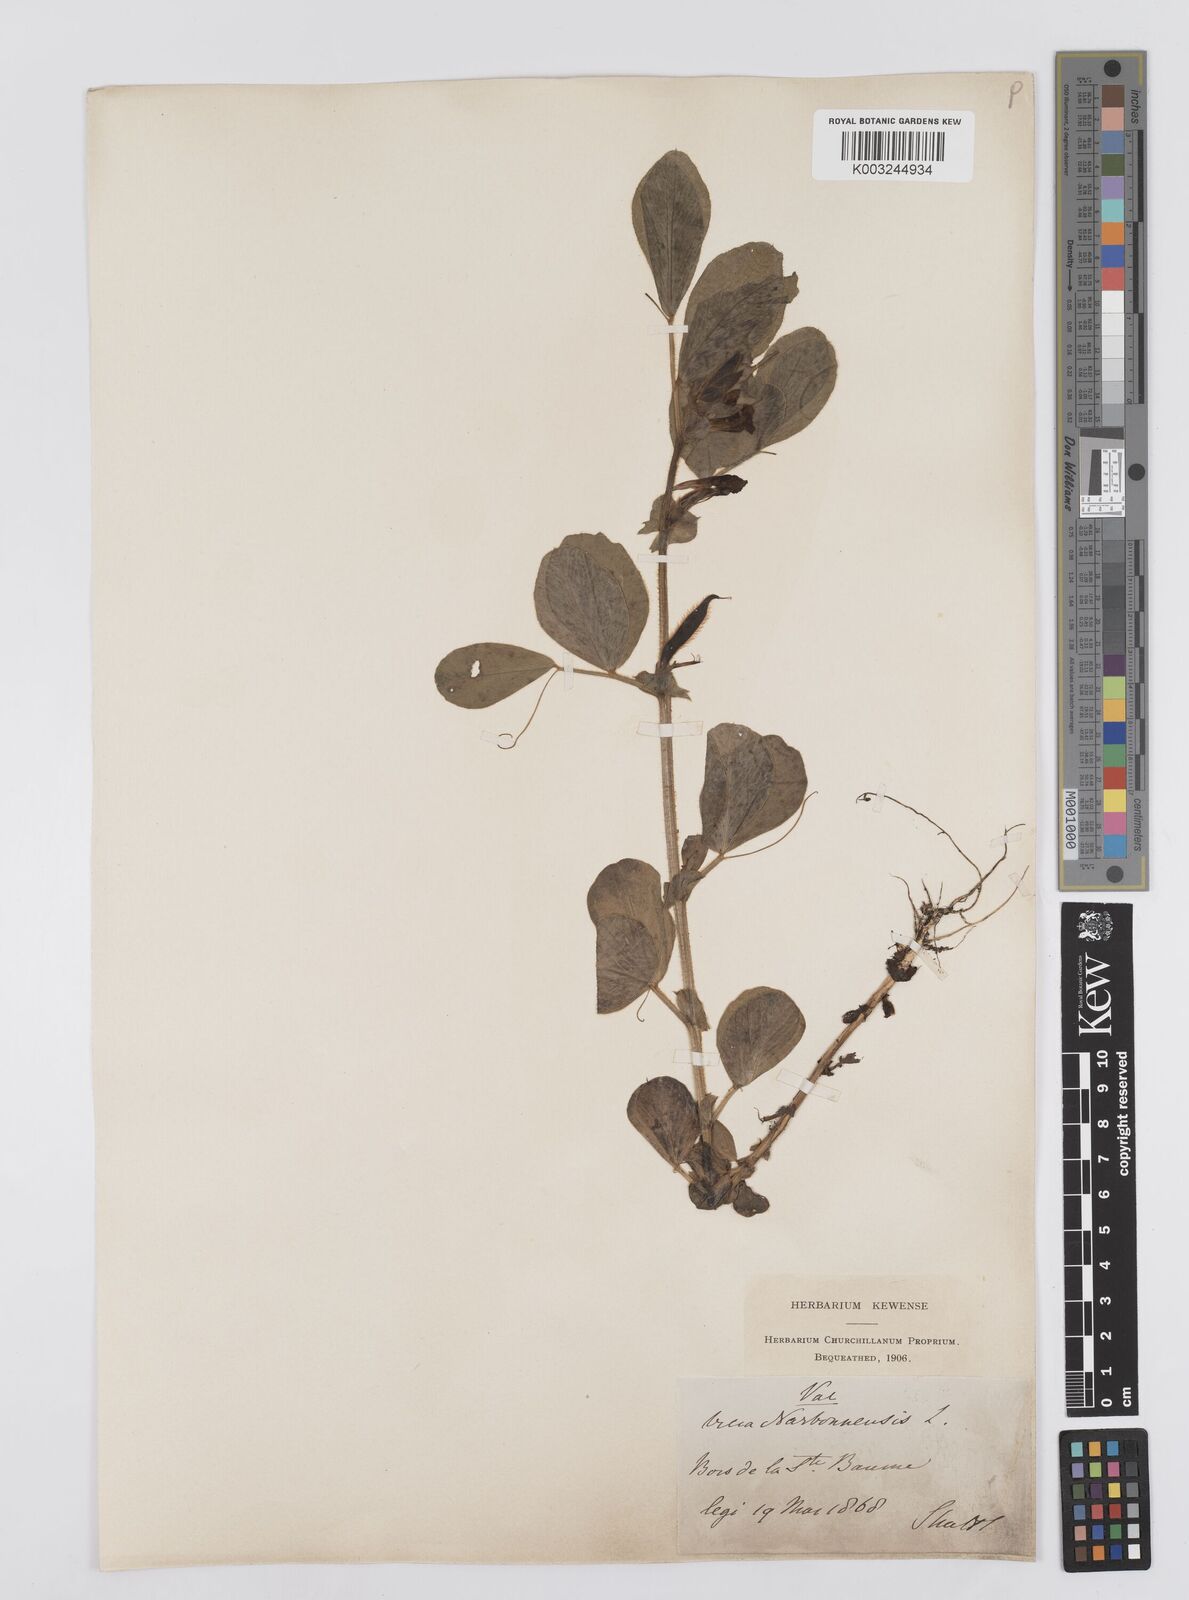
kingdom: Plantae
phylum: Tracheophyta
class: Magnoliopsida
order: Fabales
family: Fabaceae
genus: Vicia
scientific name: Vicia narbonensis
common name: Narbonne vetch
